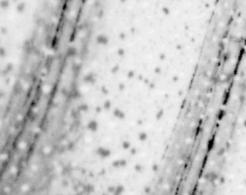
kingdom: Animalia
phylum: Chordata
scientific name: Chordata
